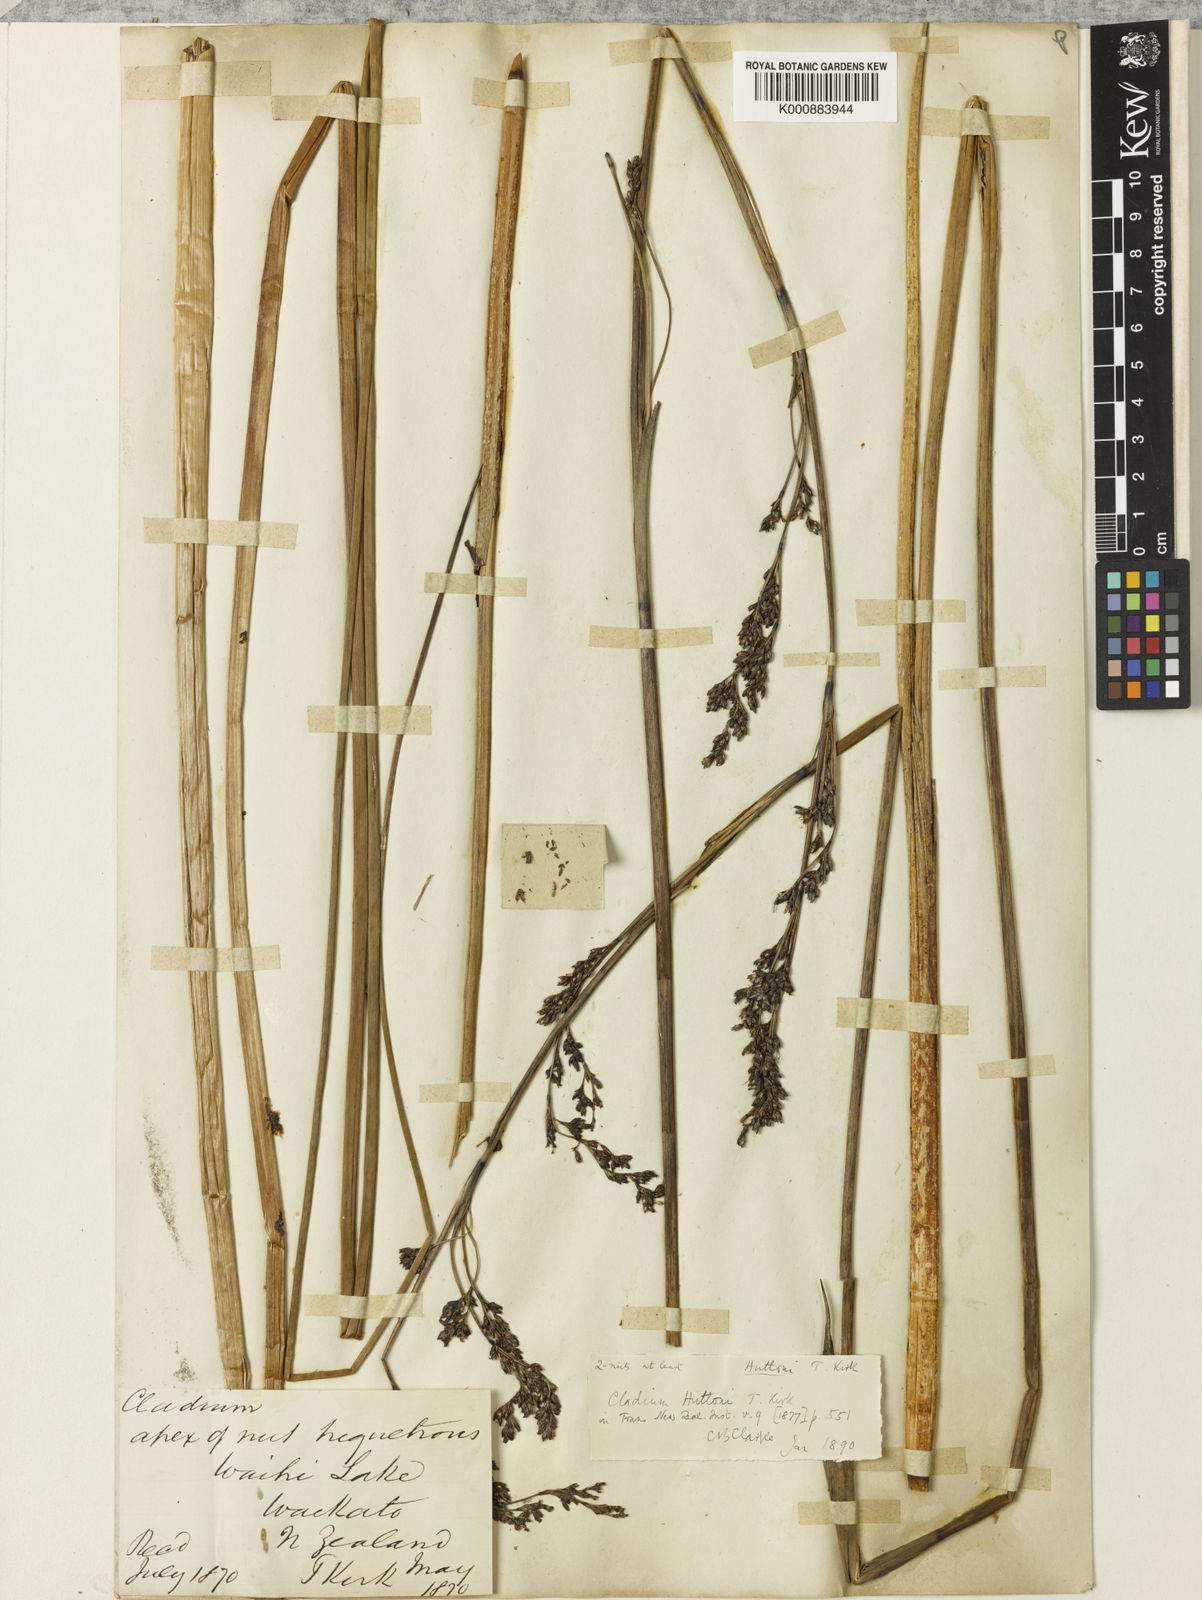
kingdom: Plantae
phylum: Tracheophyta
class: Liliopsida
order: Poales
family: Cyperaceae
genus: Machaerina
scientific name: Machaerina huttonii
